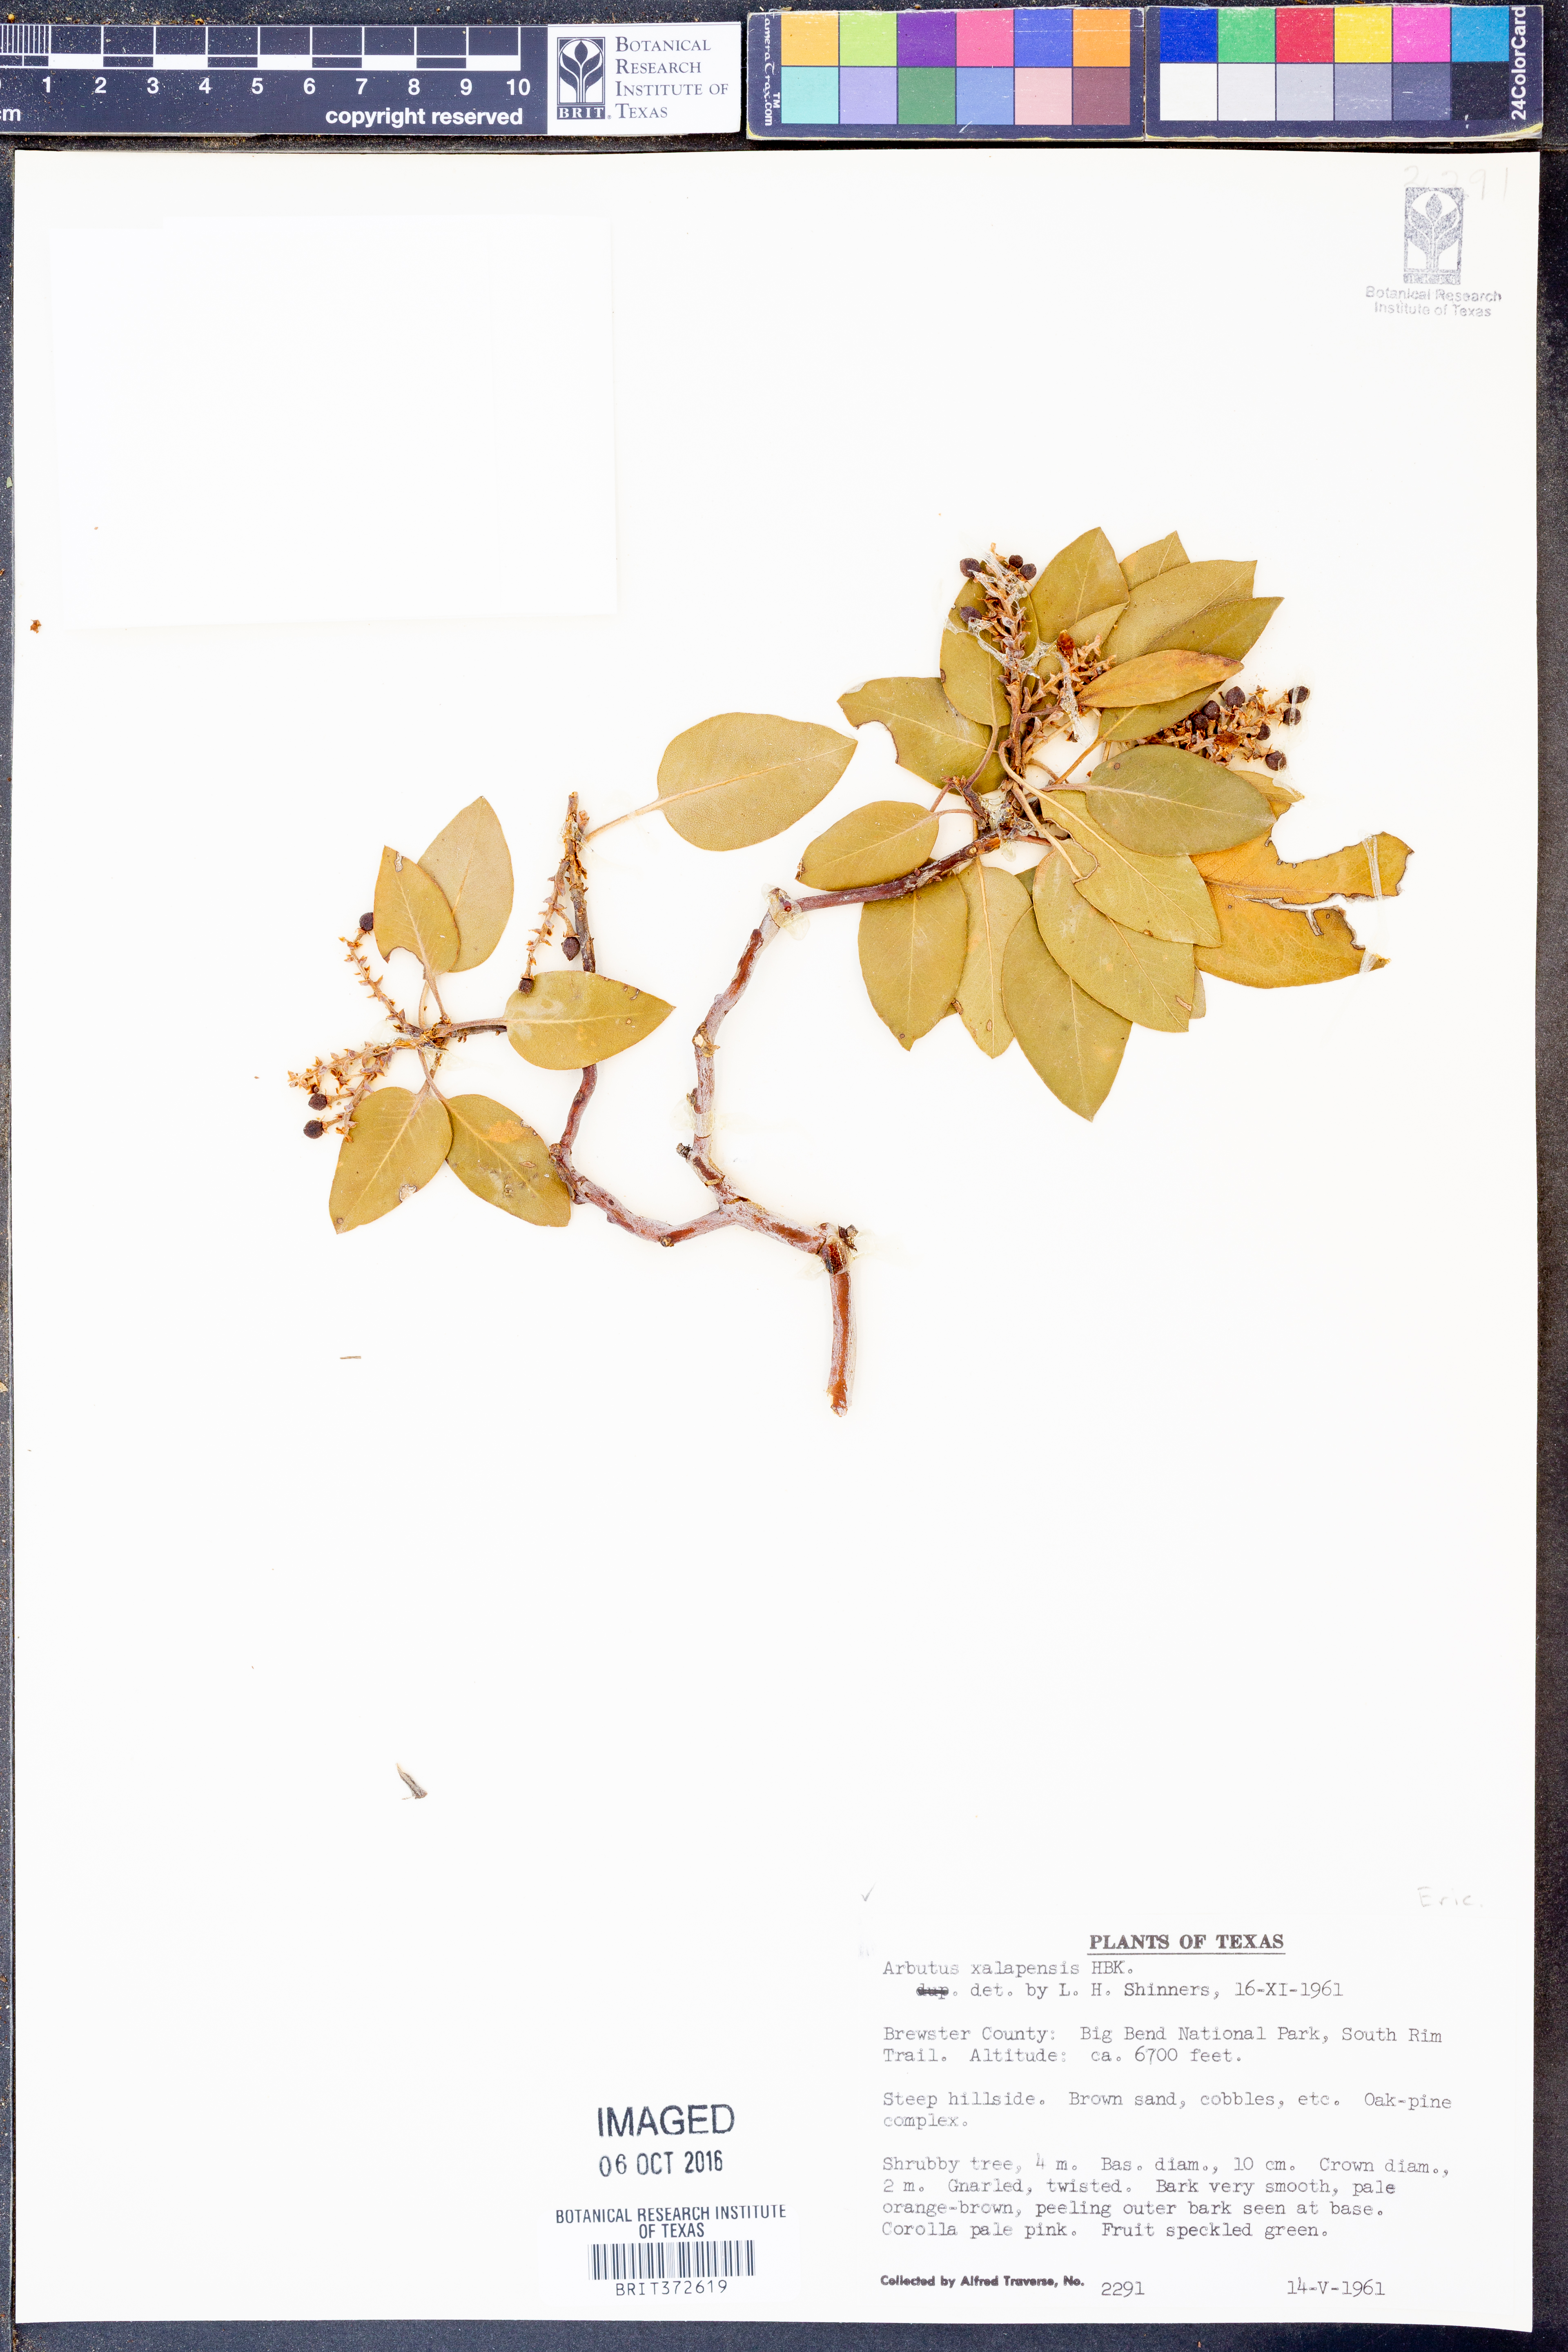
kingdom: Plantae
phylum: Tracheophyta
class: Magnoliopsida
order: Ericales
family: Ericaceae
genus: Arbutus
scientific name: Arbutus xalapensis
